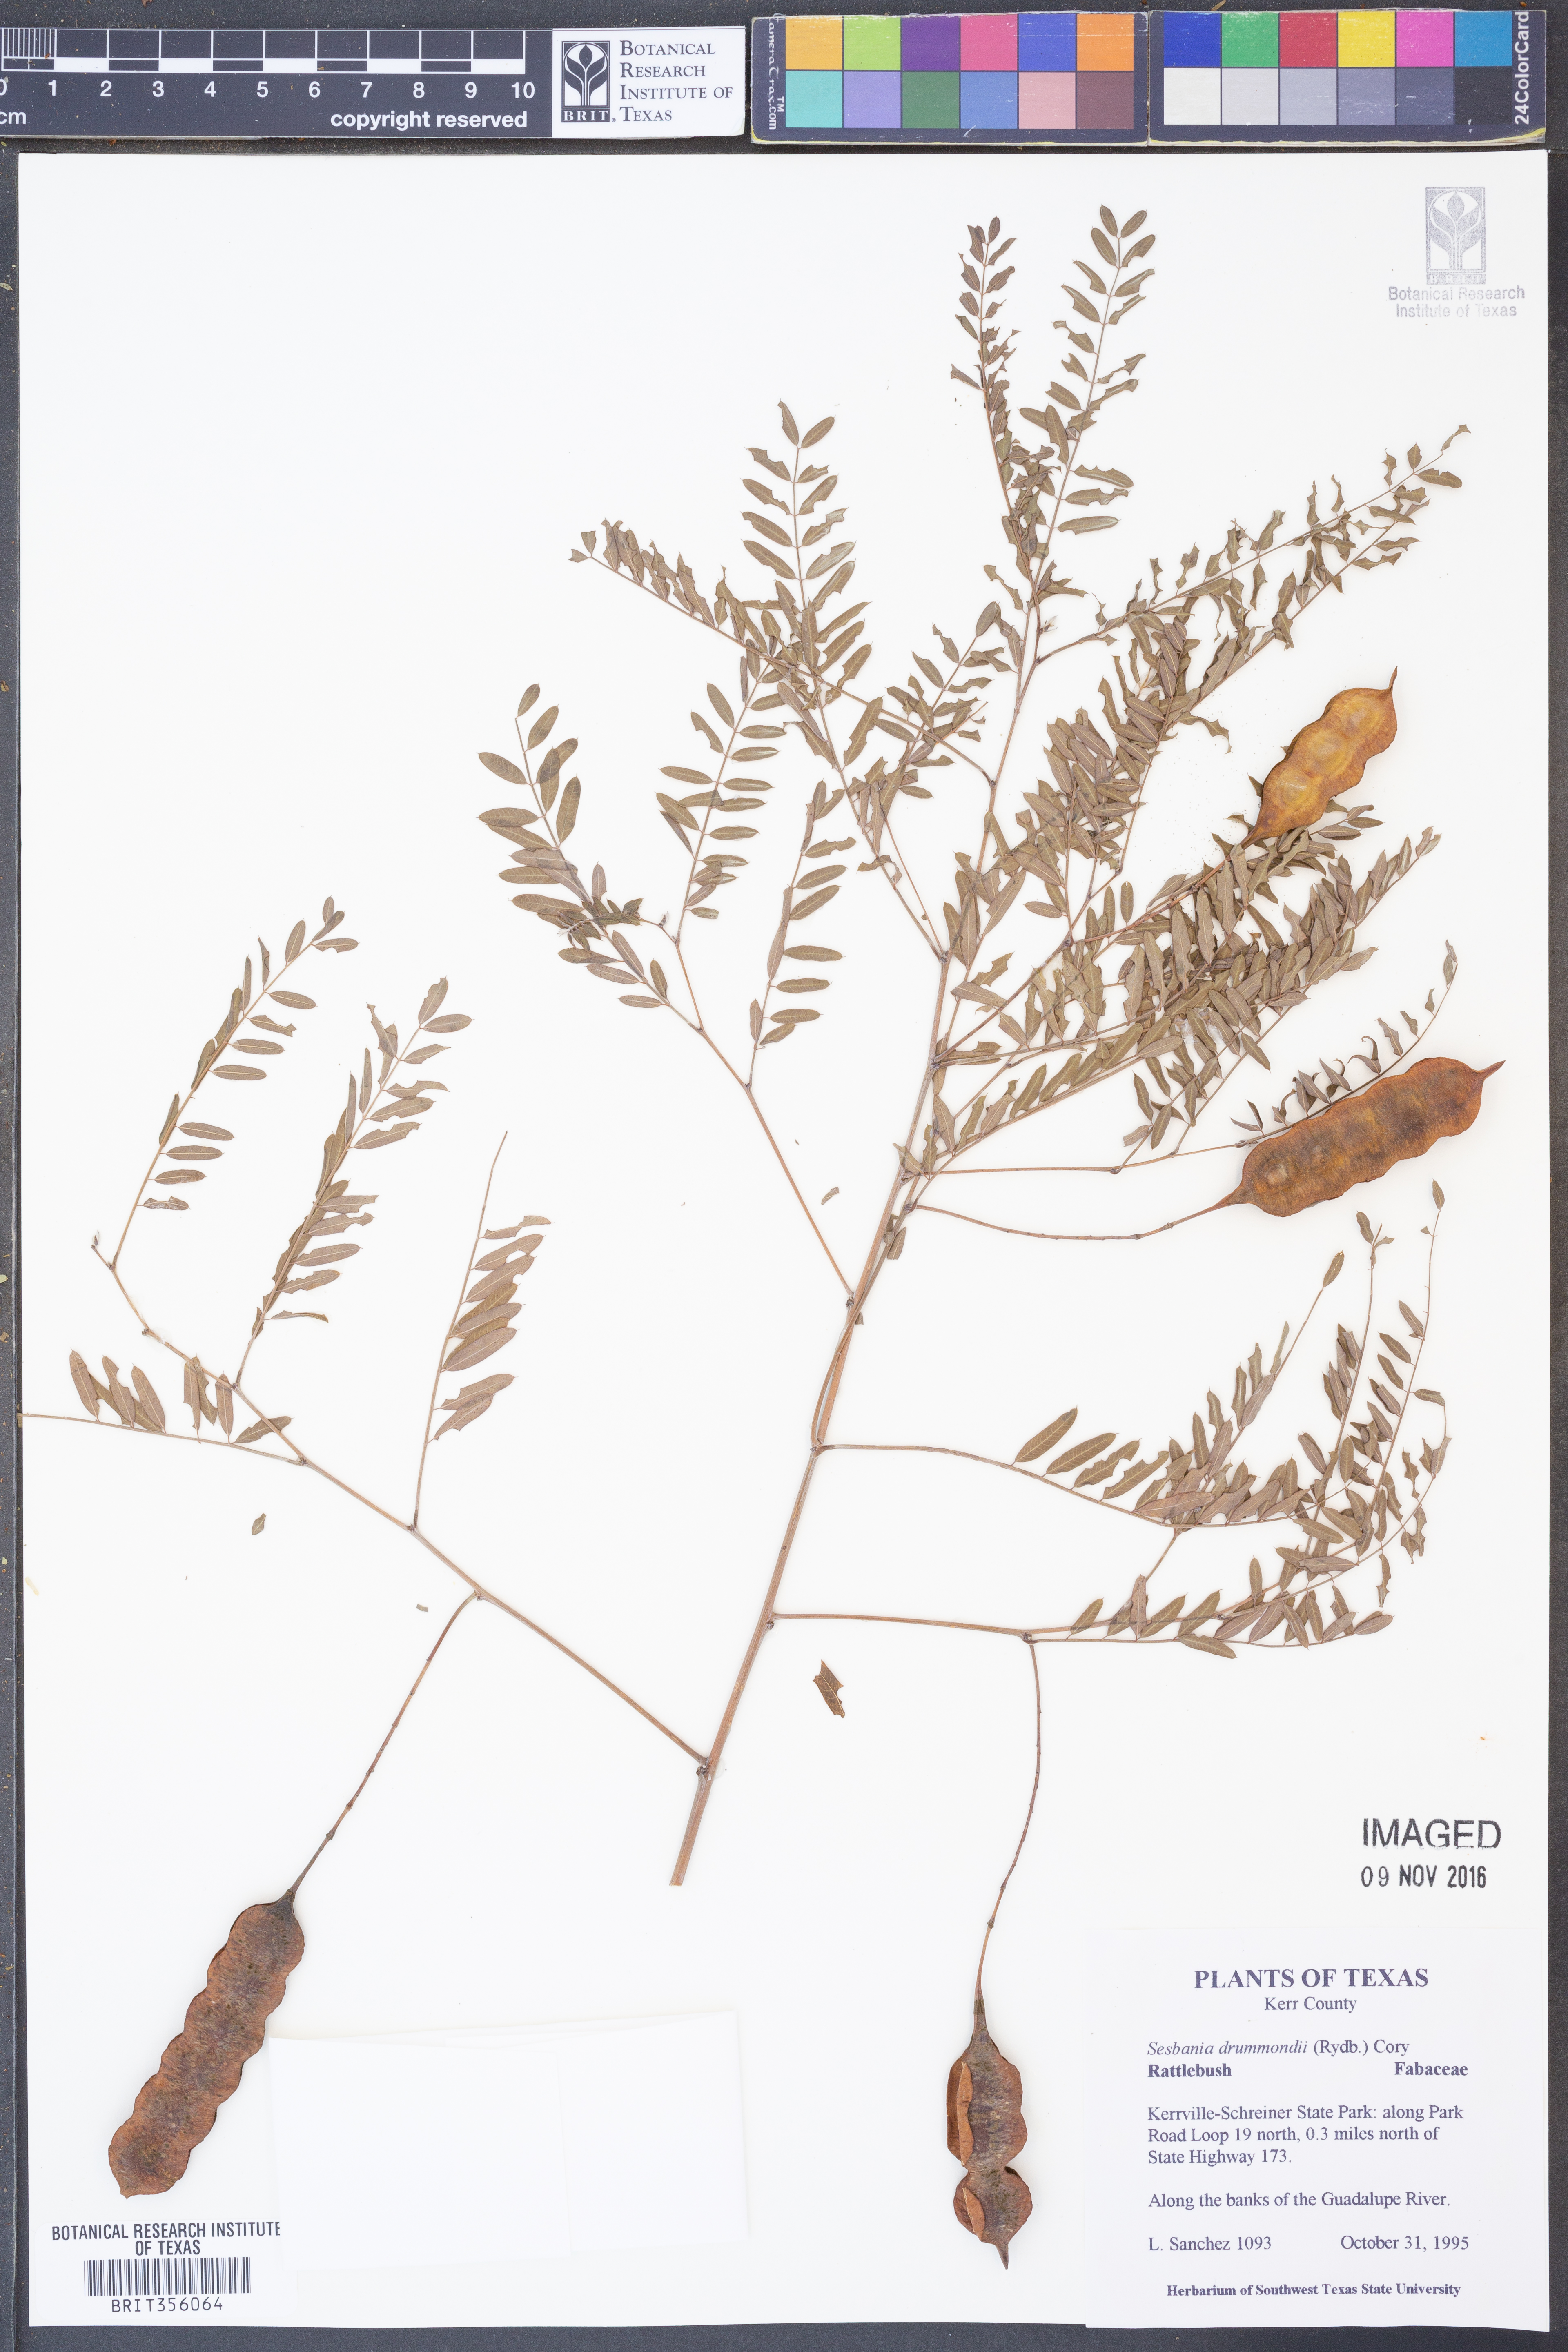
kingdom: Plantae
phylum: Tracheophyta
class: Magnoliopsida
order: Fabales
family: Fabaceae
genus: Sesbania
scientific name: Sesbania drummondii
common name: Poison-bean
